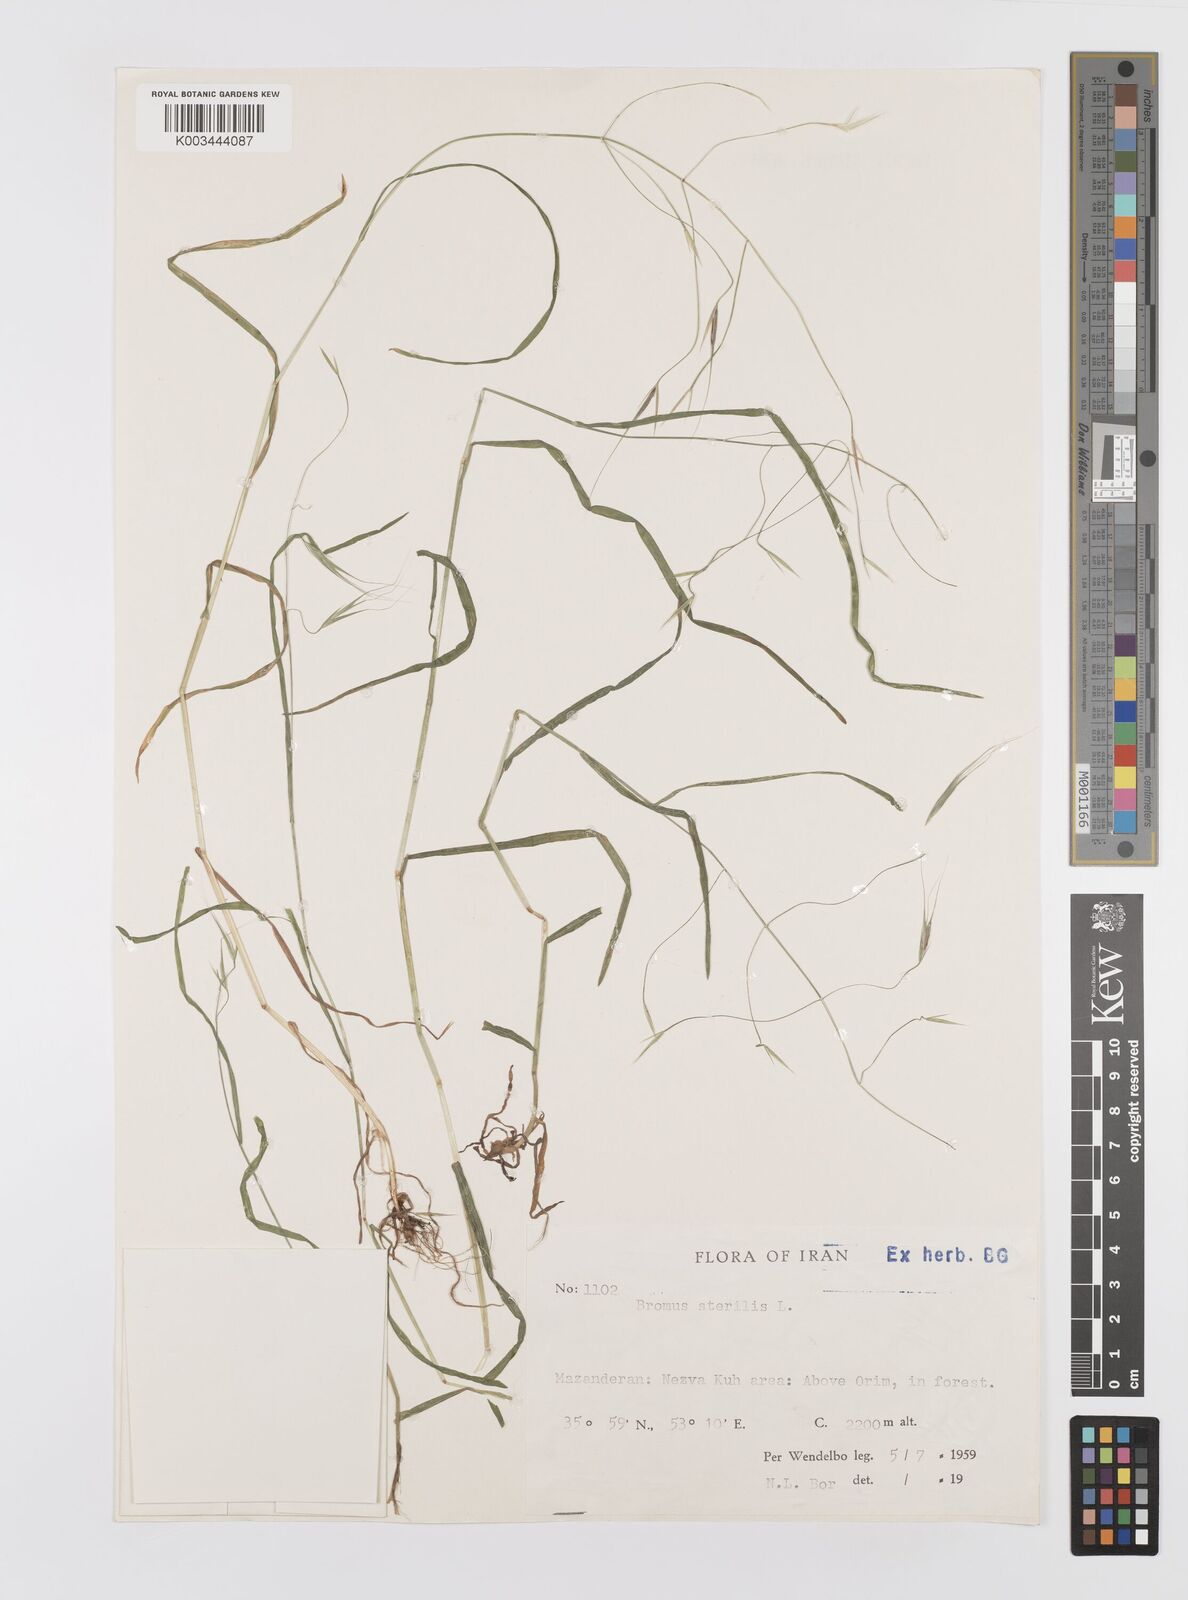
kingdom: Plantae
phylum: Tracheophyta
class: Liliopsida
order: Poales
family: Poaceae
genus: Bromus
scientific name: Bromus sterilis
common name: Poverty brome
